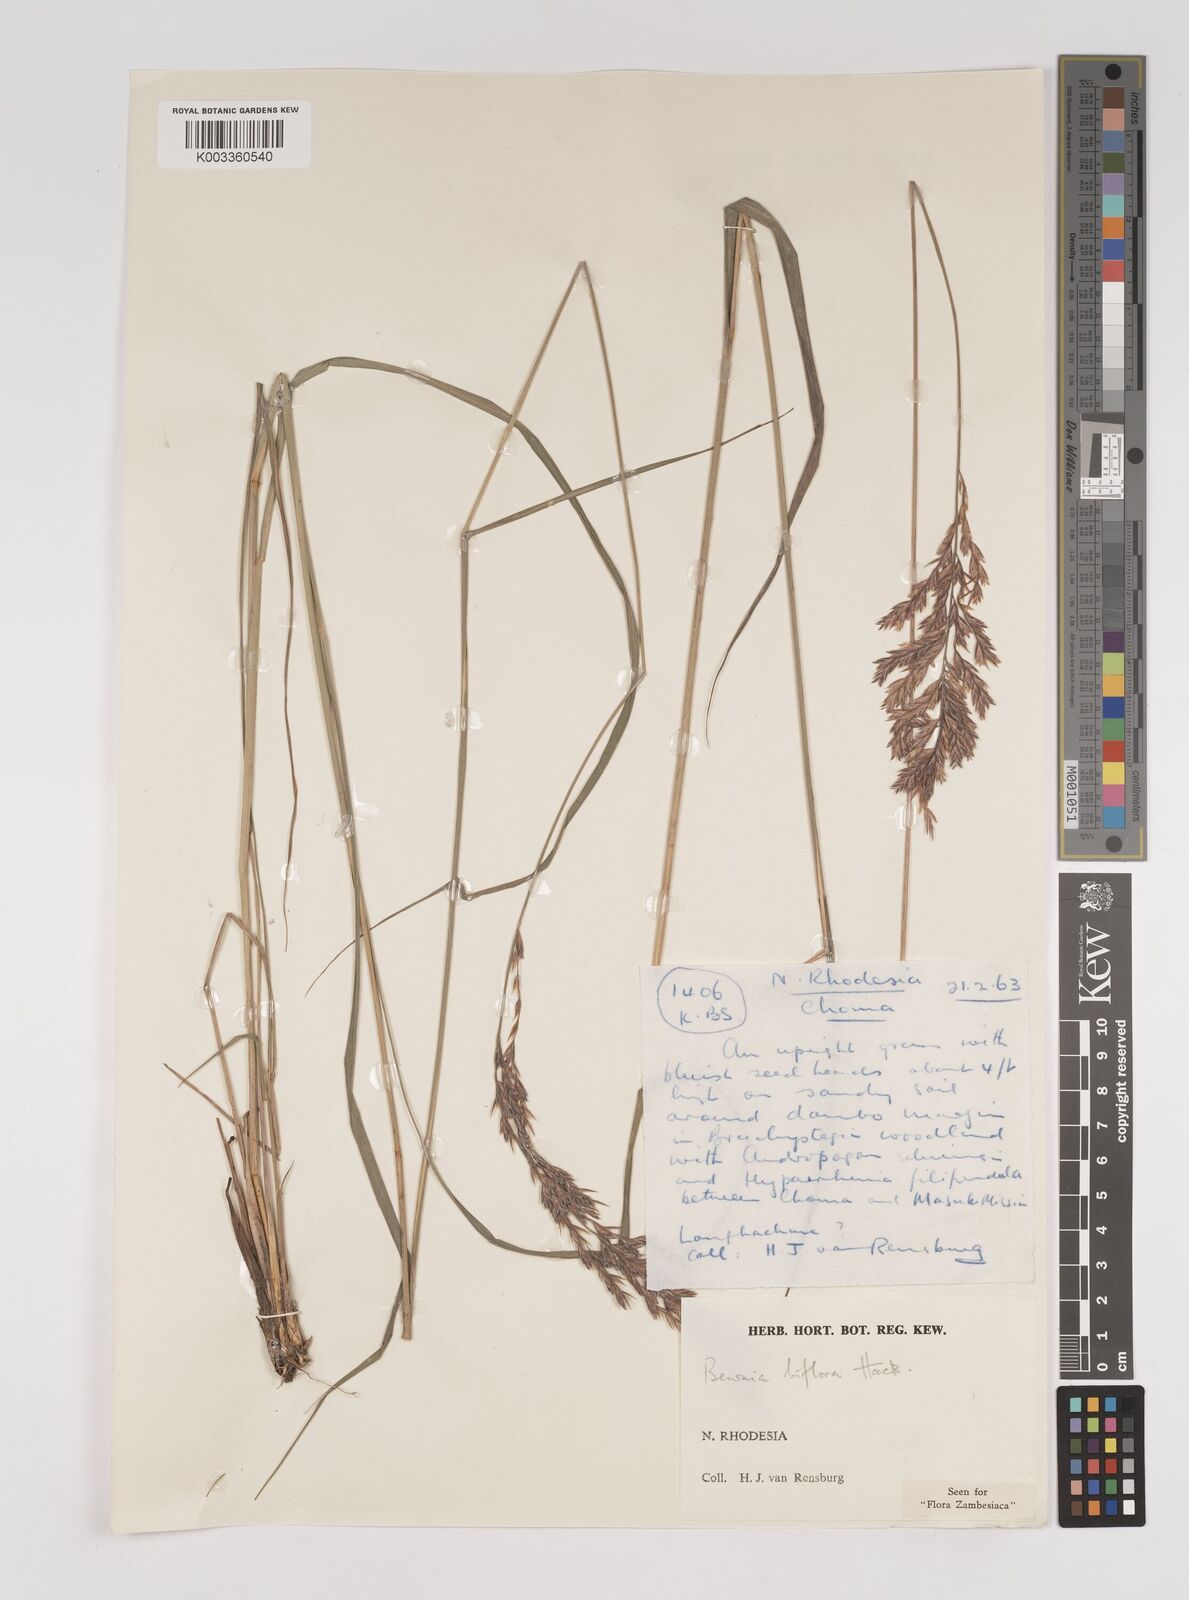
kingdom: Plantae
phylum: Tracheophyta
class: Liliopsida
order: Poales
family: Poaceae
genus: Bewsia
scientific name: Bewsia biflora
